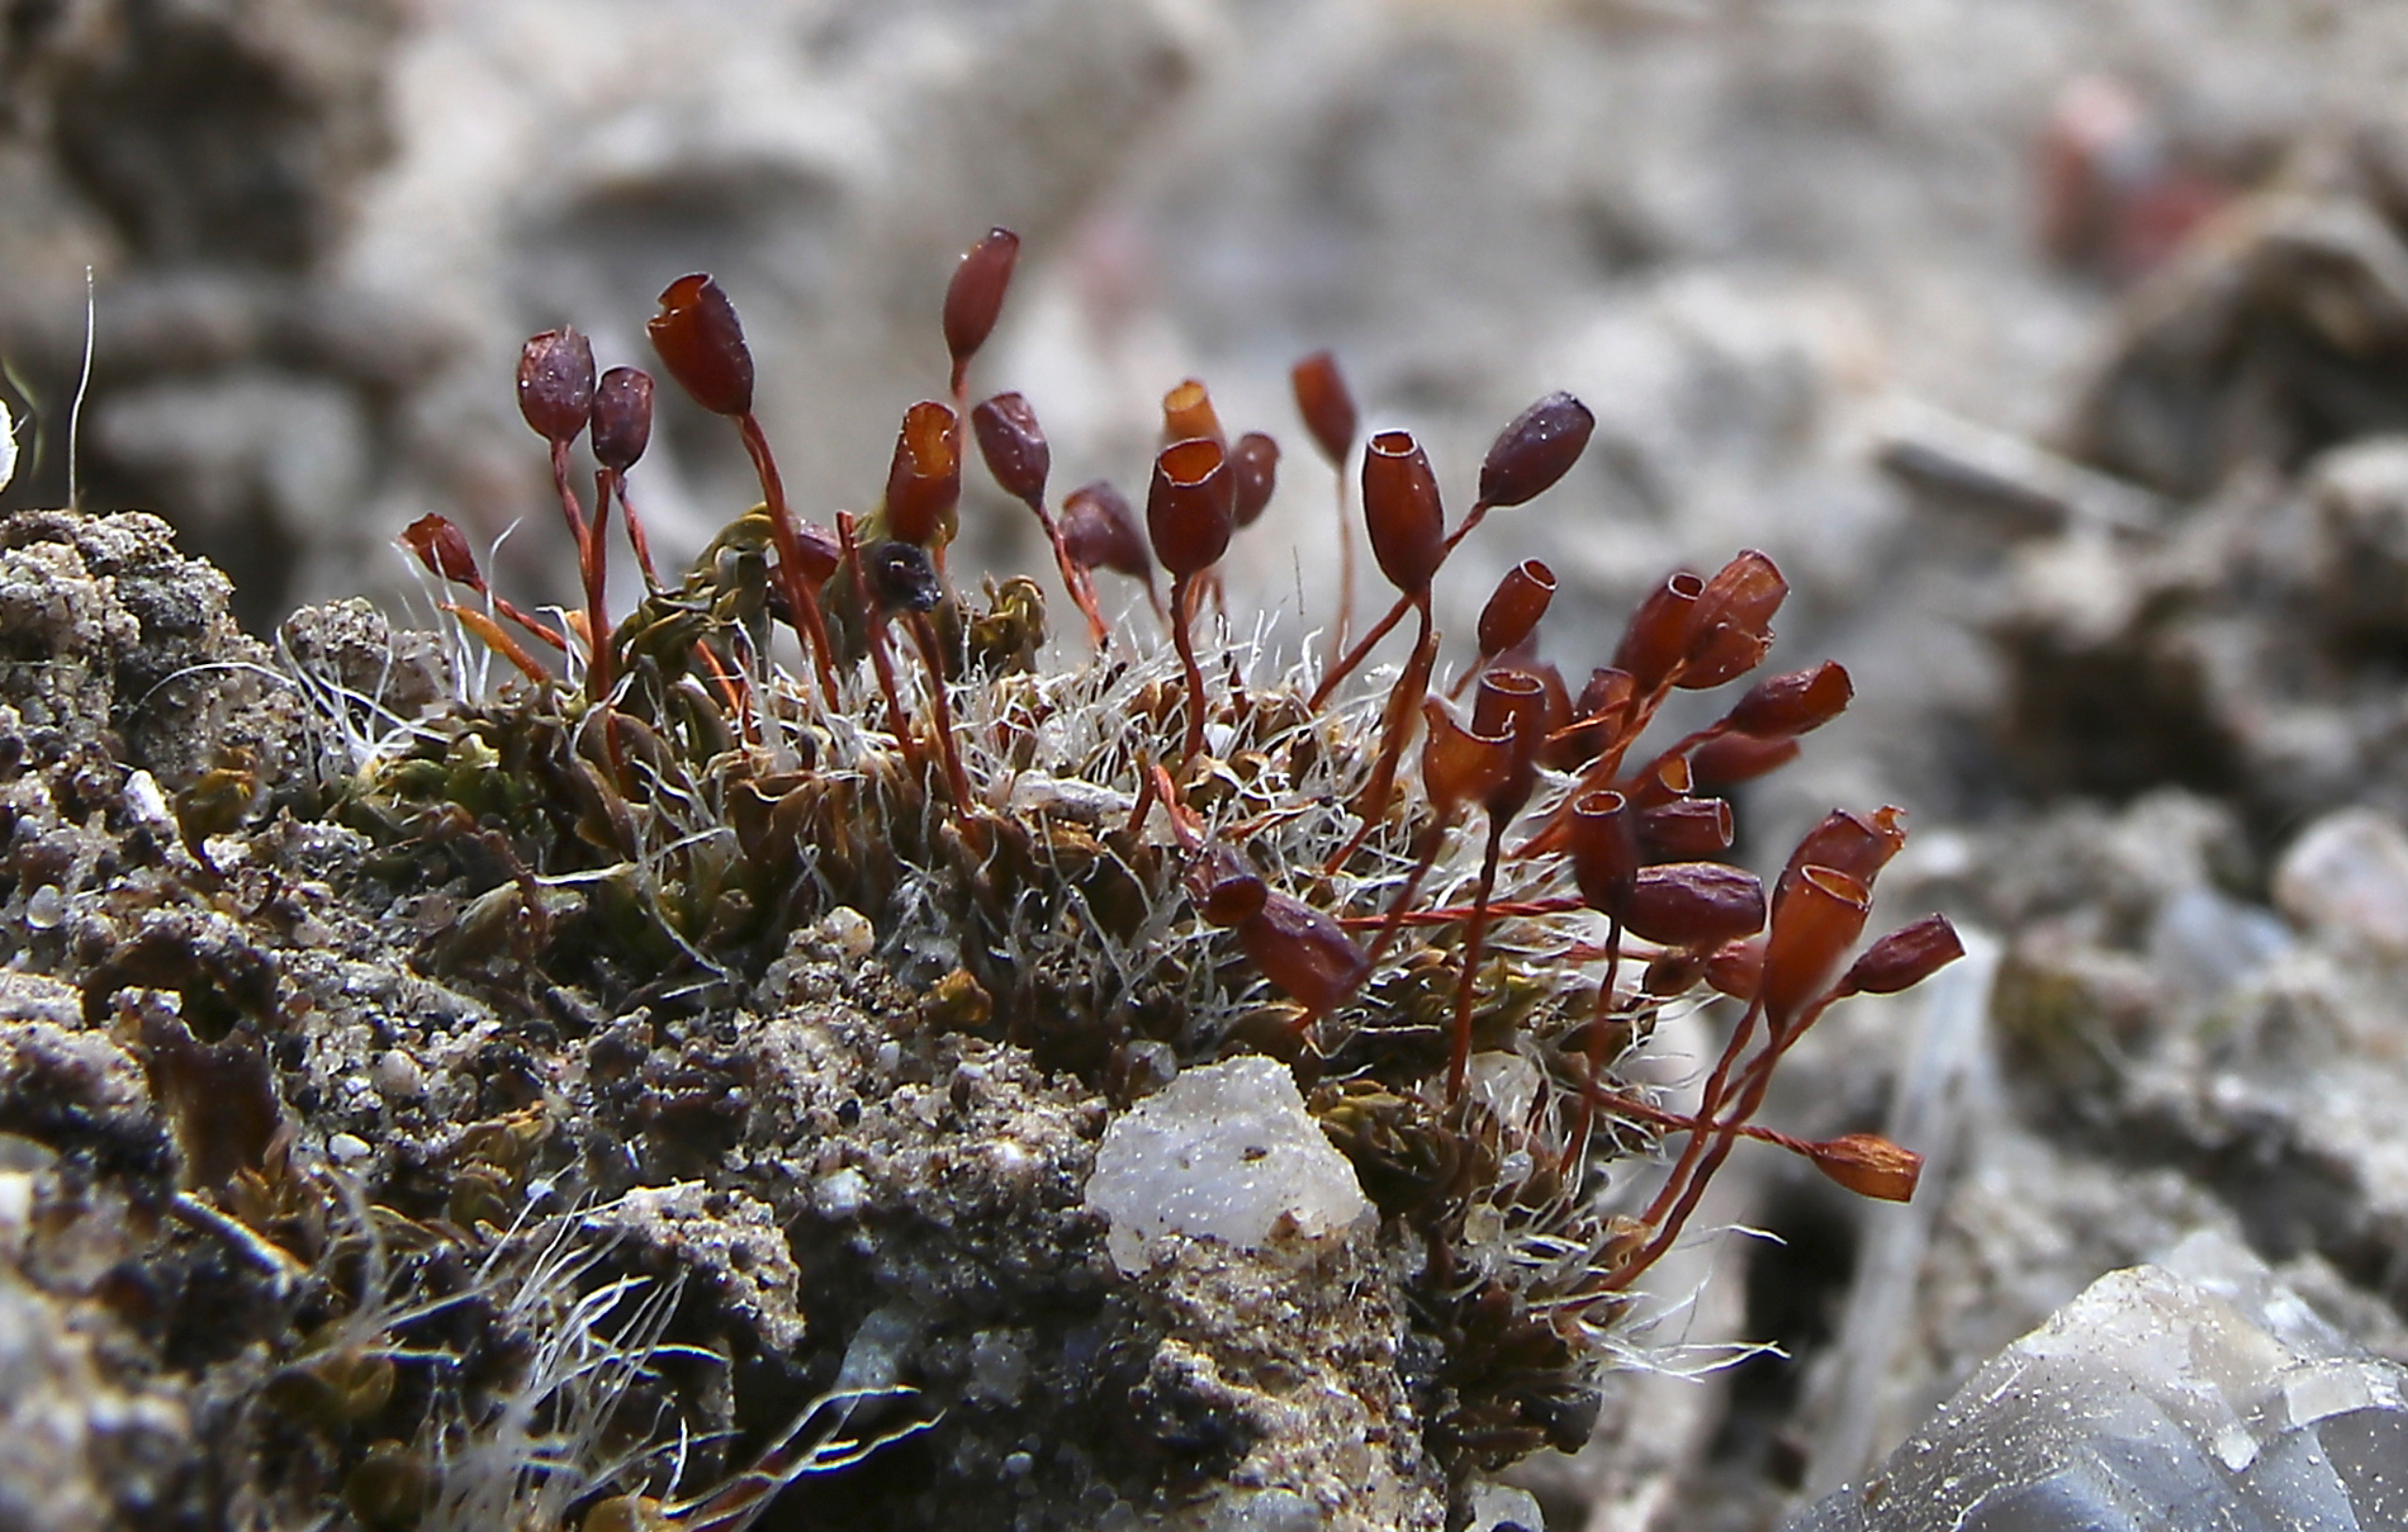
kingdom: Plantae
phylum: Bryophyta
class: Bryopsida
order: Pottiales
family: Pottiaceae
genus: Pterygoneurum
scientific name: Pterygoneurum ovatum
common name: Langhåret vingenerve
